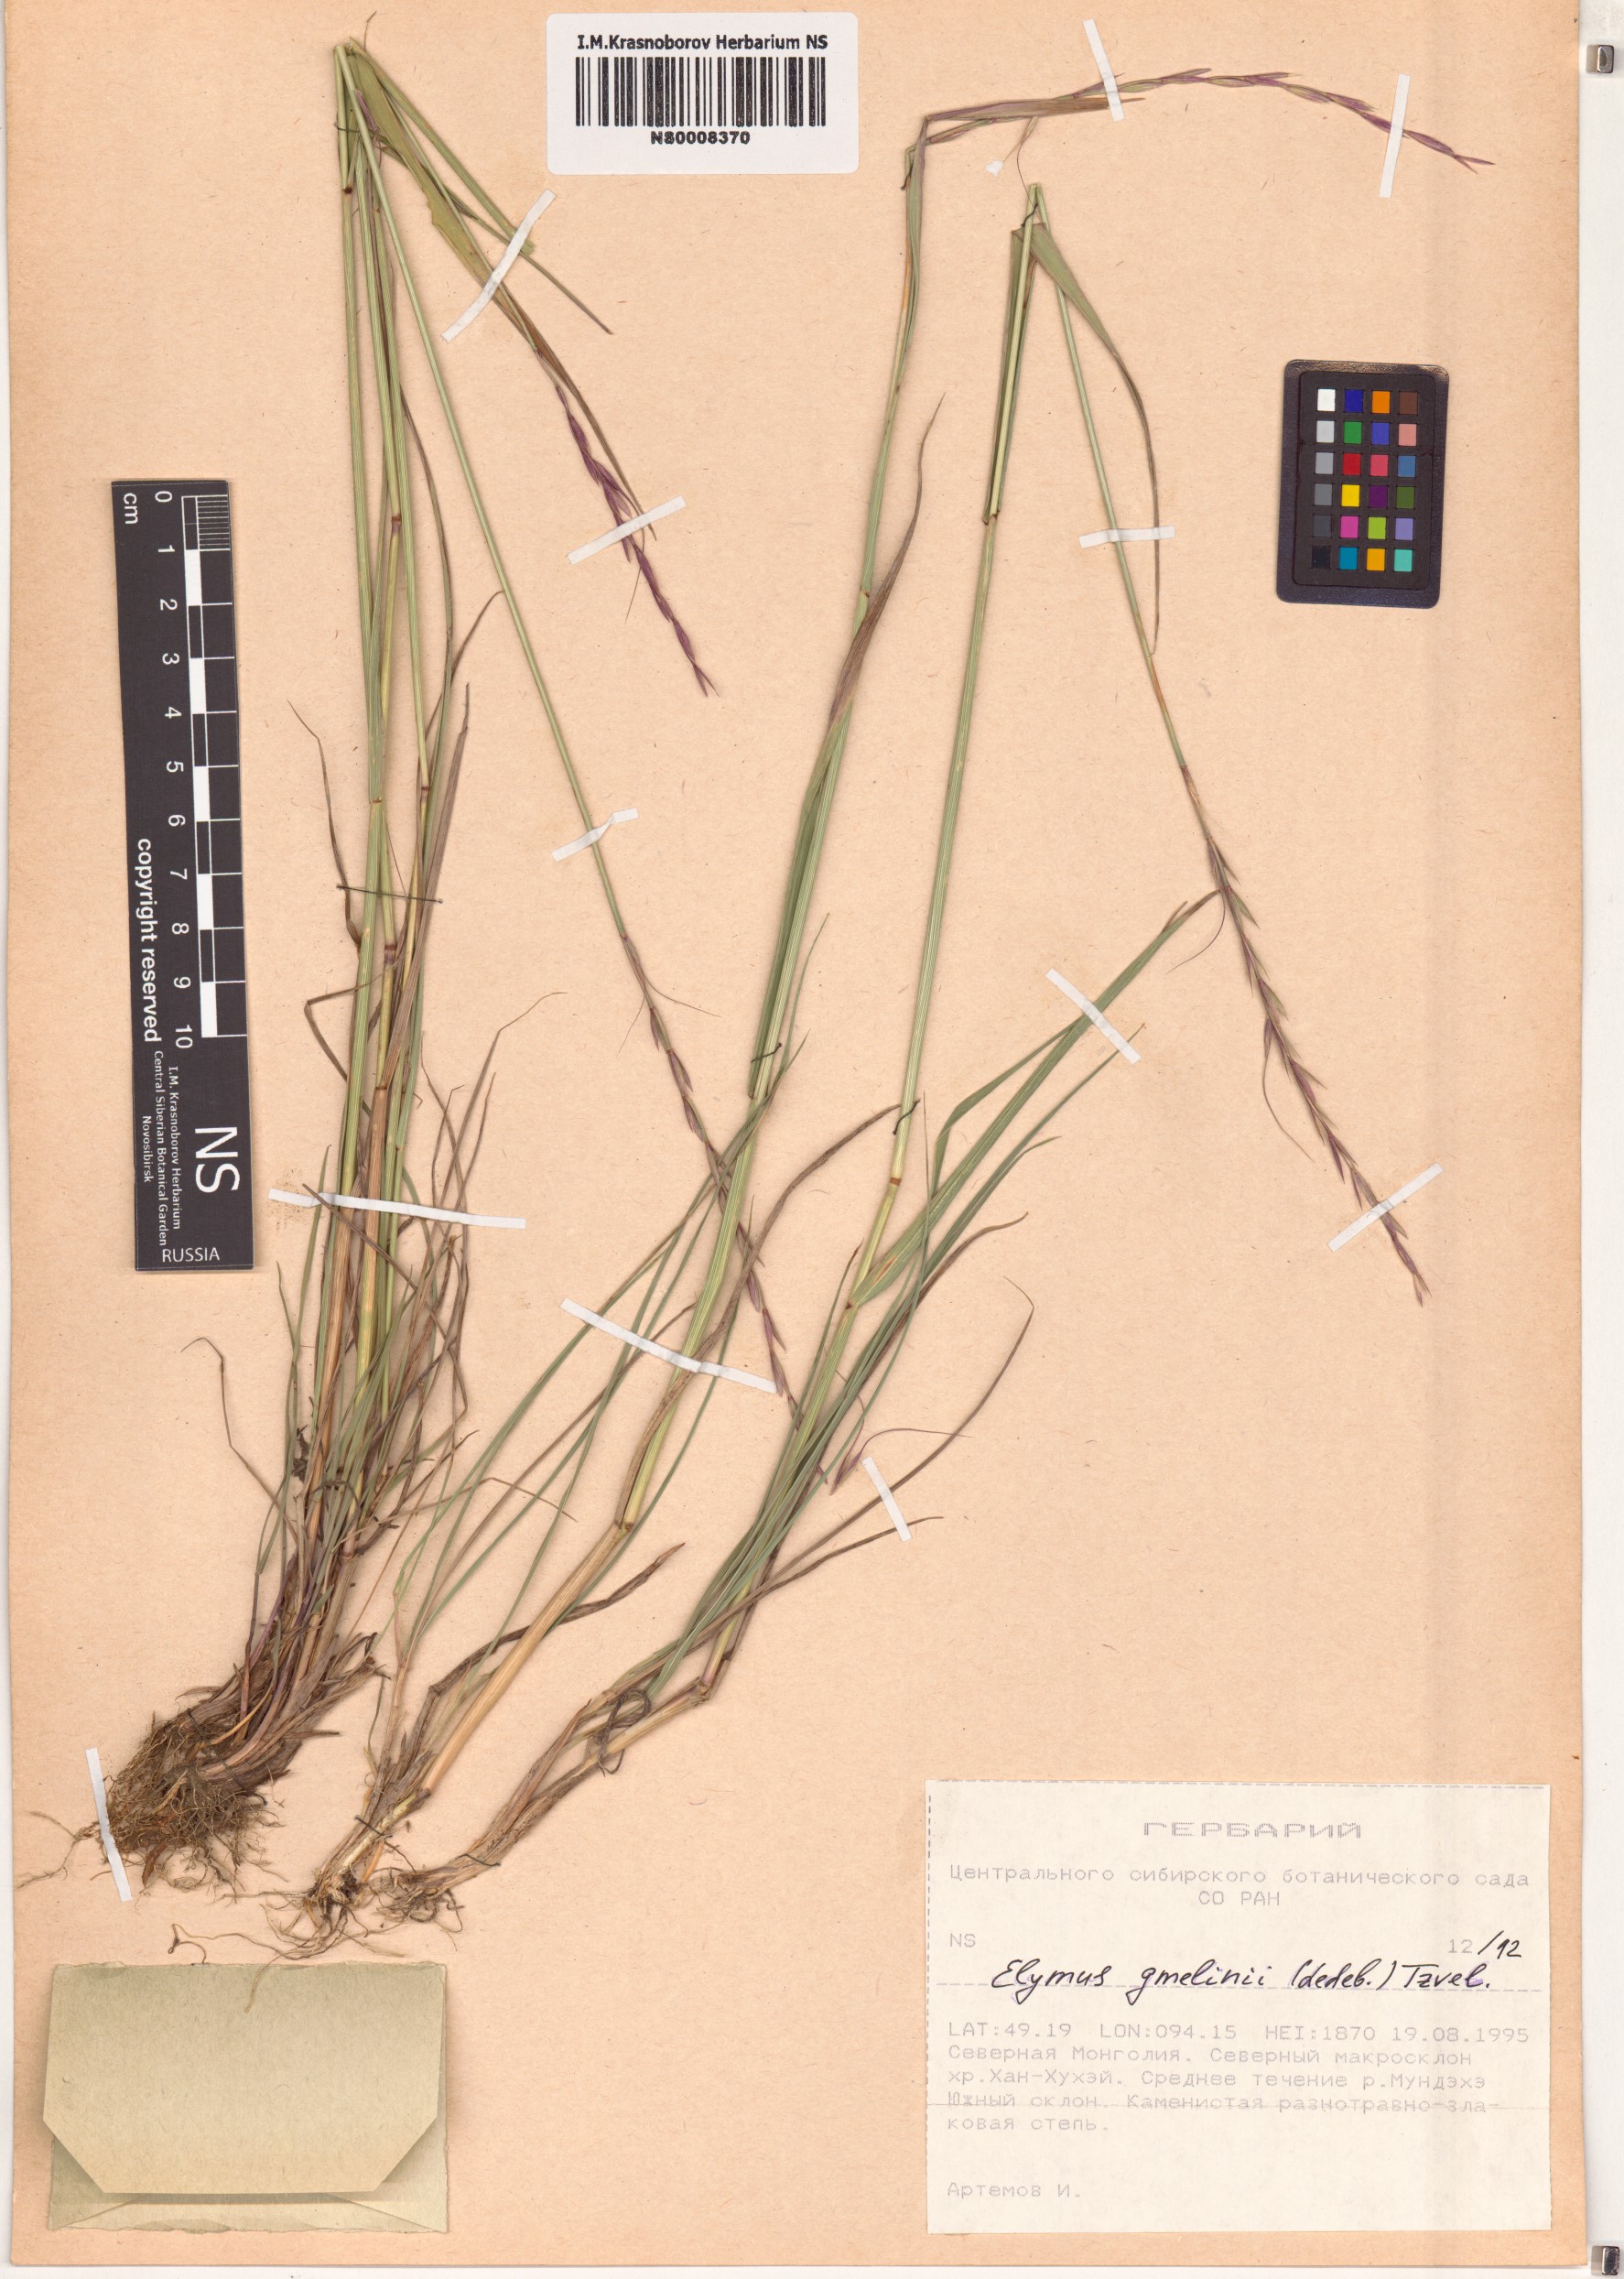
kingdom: Plantae
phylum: Tracheophyta
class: Liliopsida
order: Poales
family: Poaceae
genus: Elymus
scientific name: Elymus gmelinii
